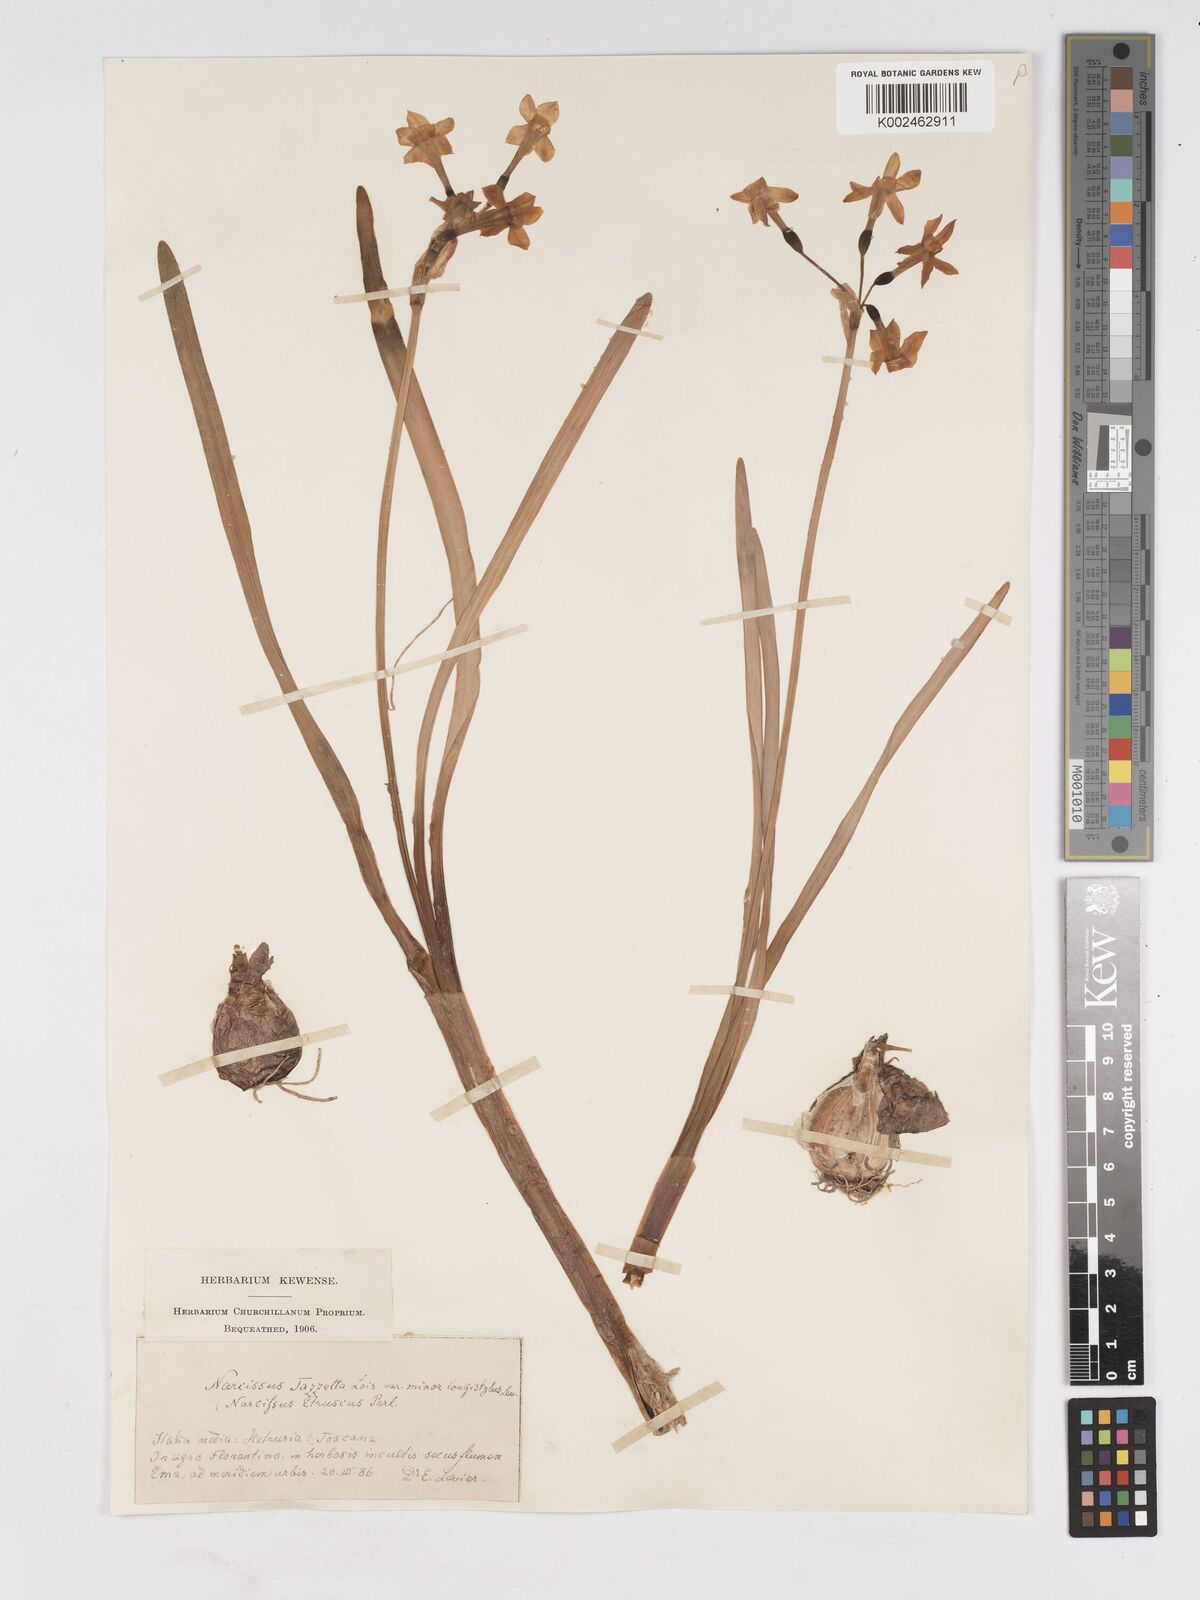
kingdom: Plantae
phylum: Tracheophyta
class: Liliopsida
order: Asparagales
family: Amaryllidaceae
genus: Narcissus
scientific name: Narcissus tazetta
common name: Bunch-flowered daffodil
